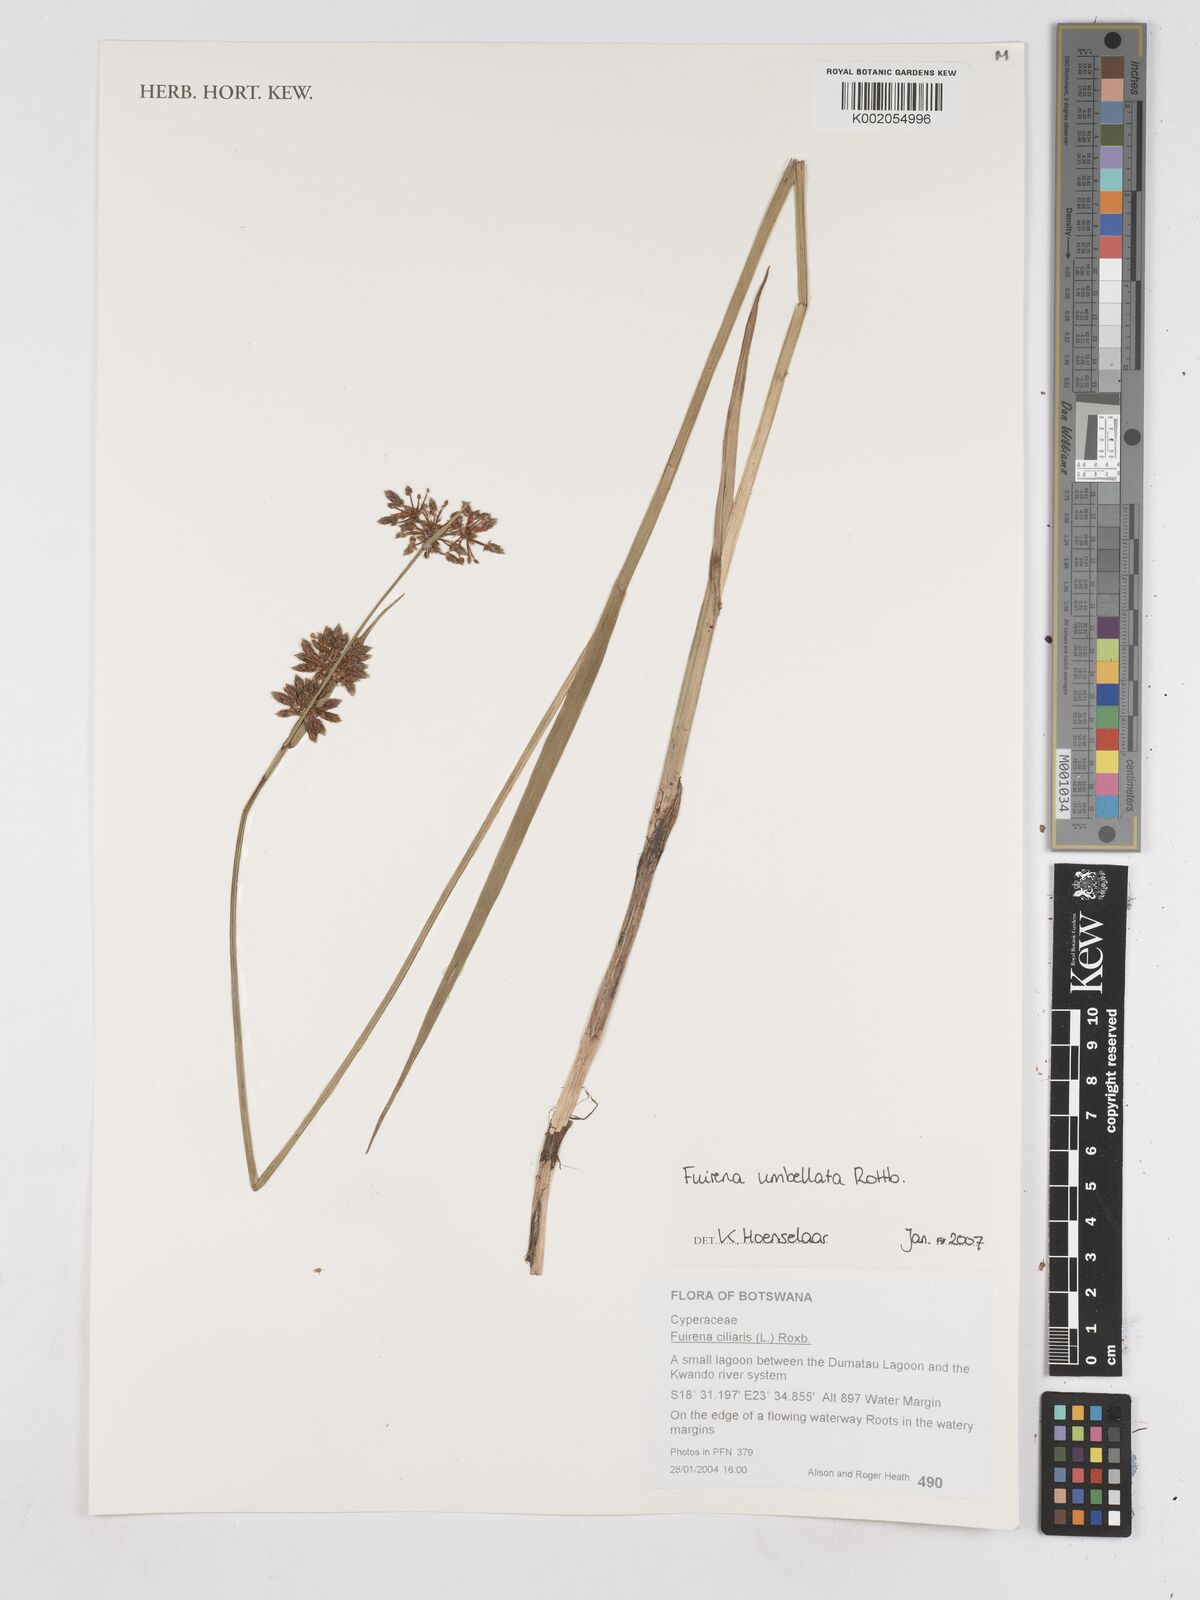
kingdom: Plantae
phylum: Tracheophyta
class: Liliopsida
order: Poales
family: Cyperaceae
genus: Fuirena
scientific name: Fuirena umbellata
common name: Yefen
